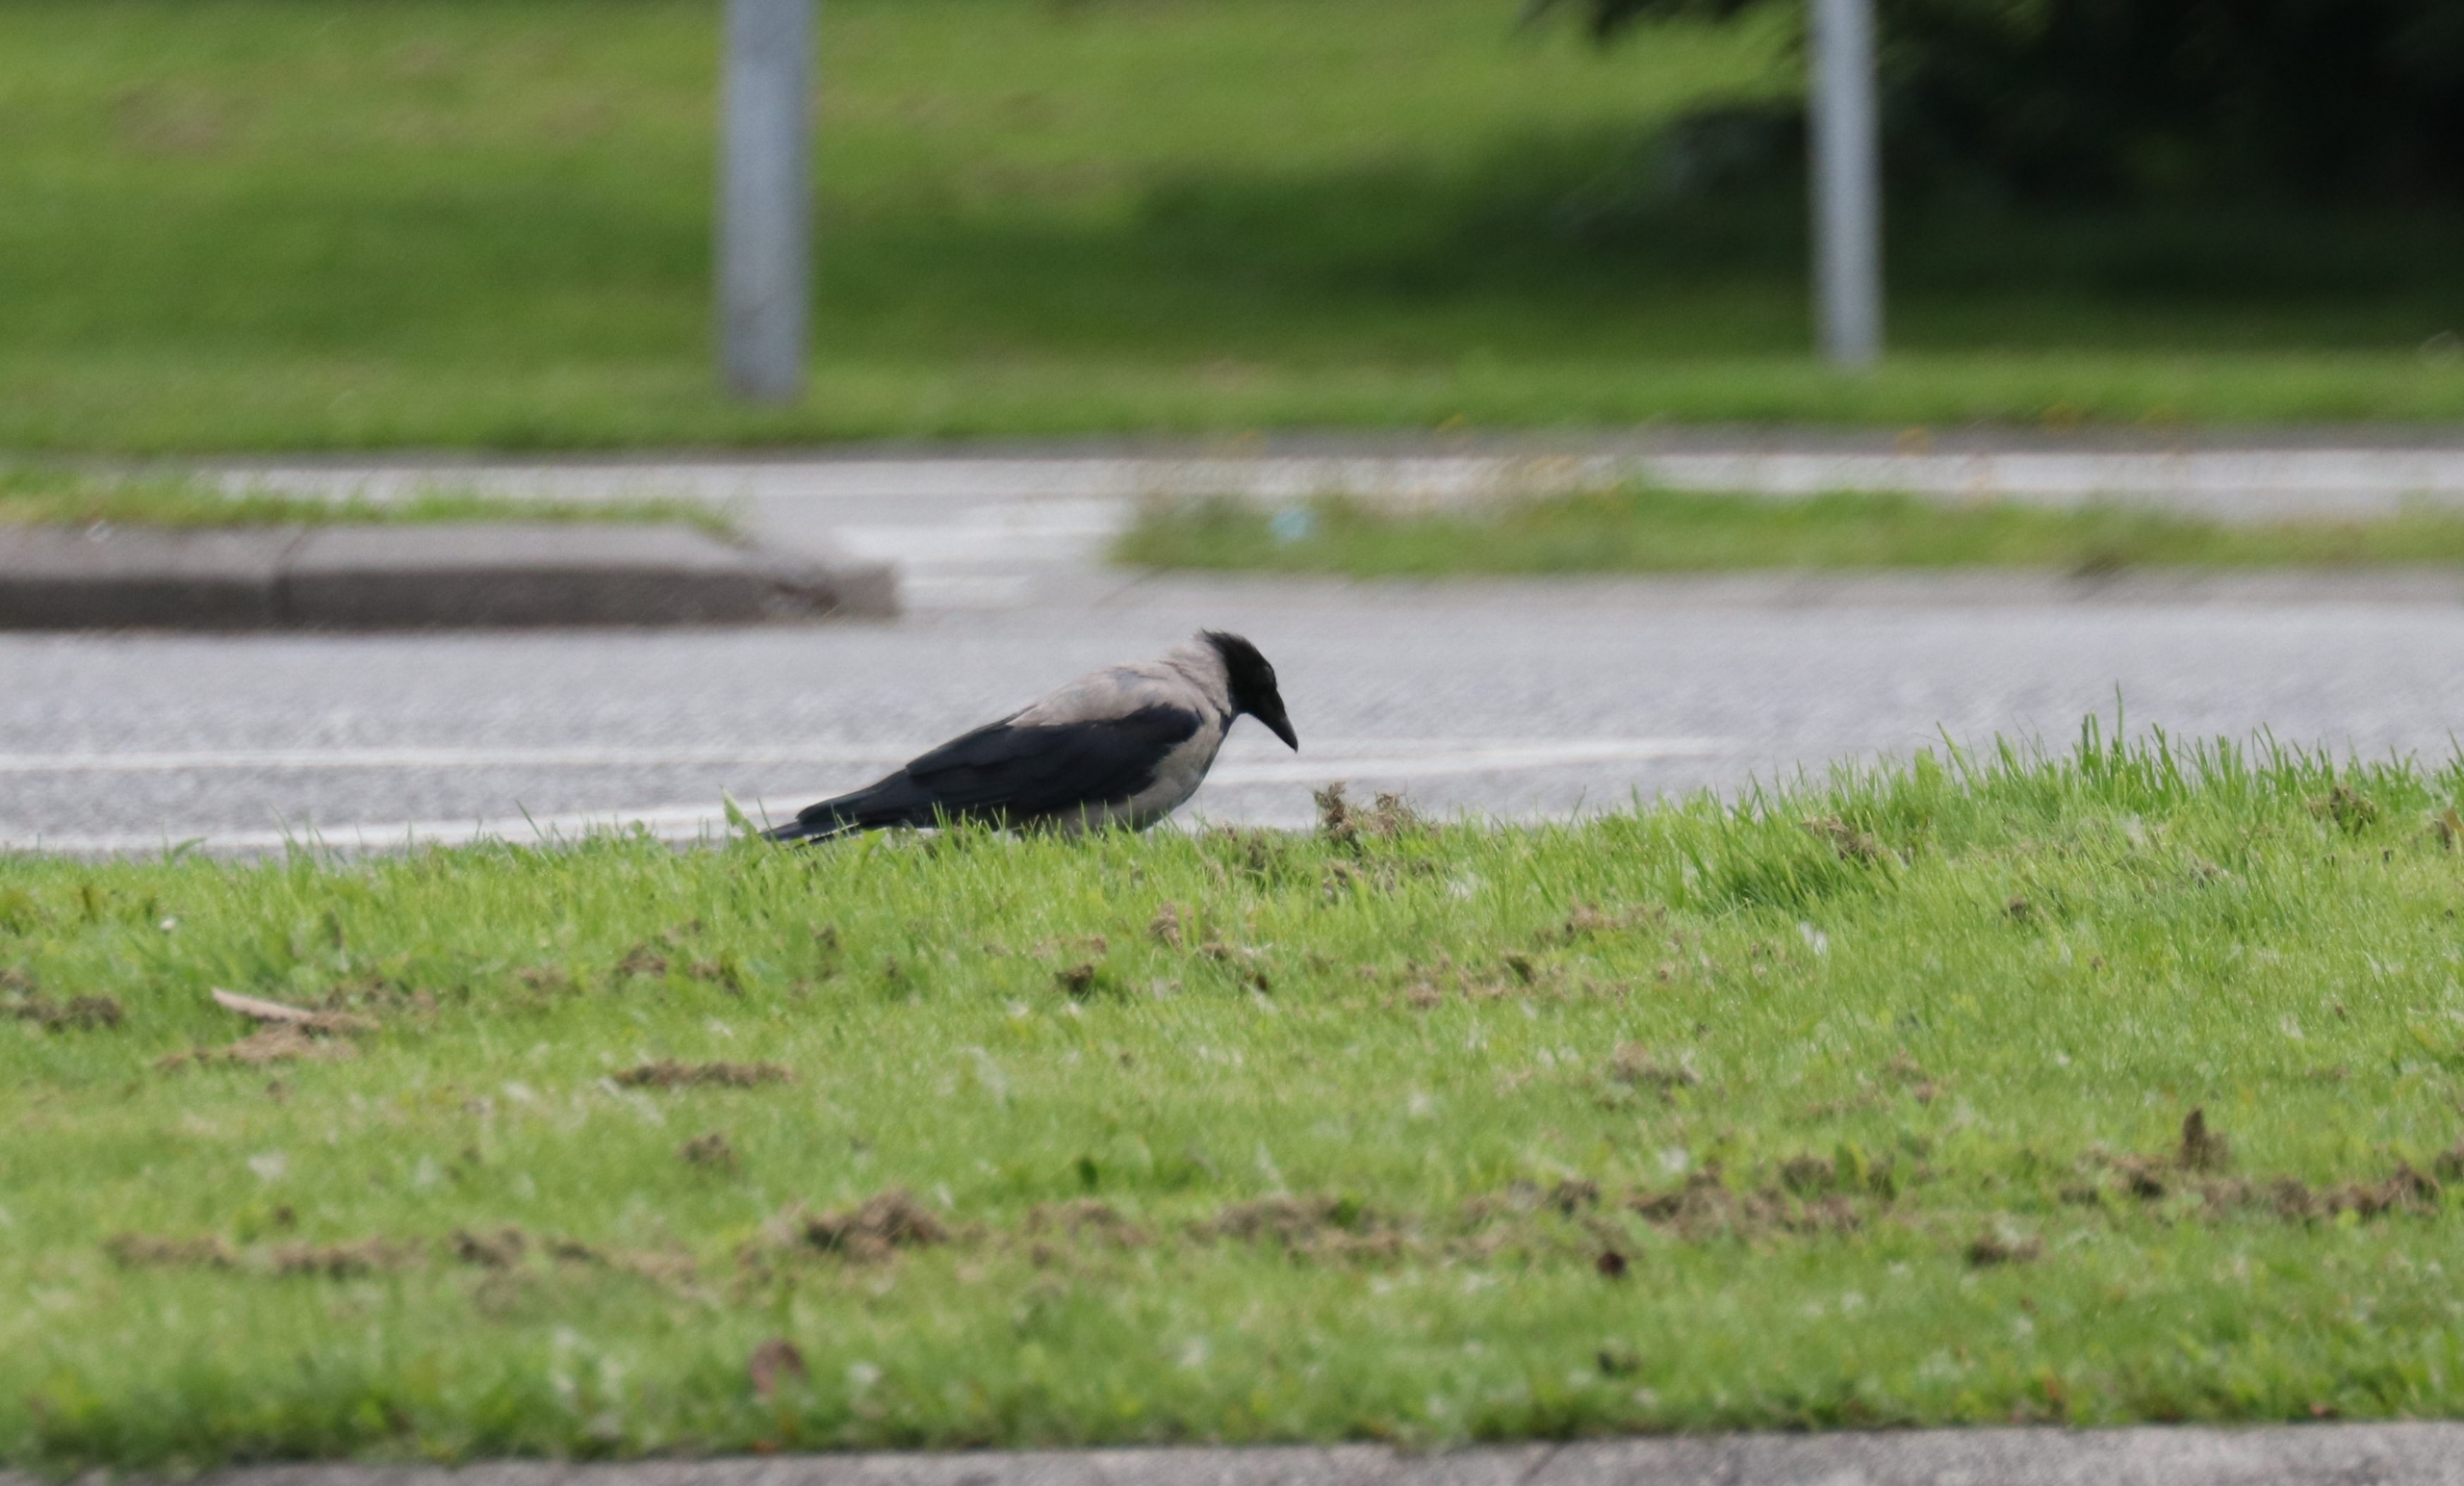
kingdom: Animalia
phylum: Chordata
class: Aves
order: Passeriformes
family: Corvidae
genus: Corvus
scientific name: Corvus cornix
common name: Gråkrage
